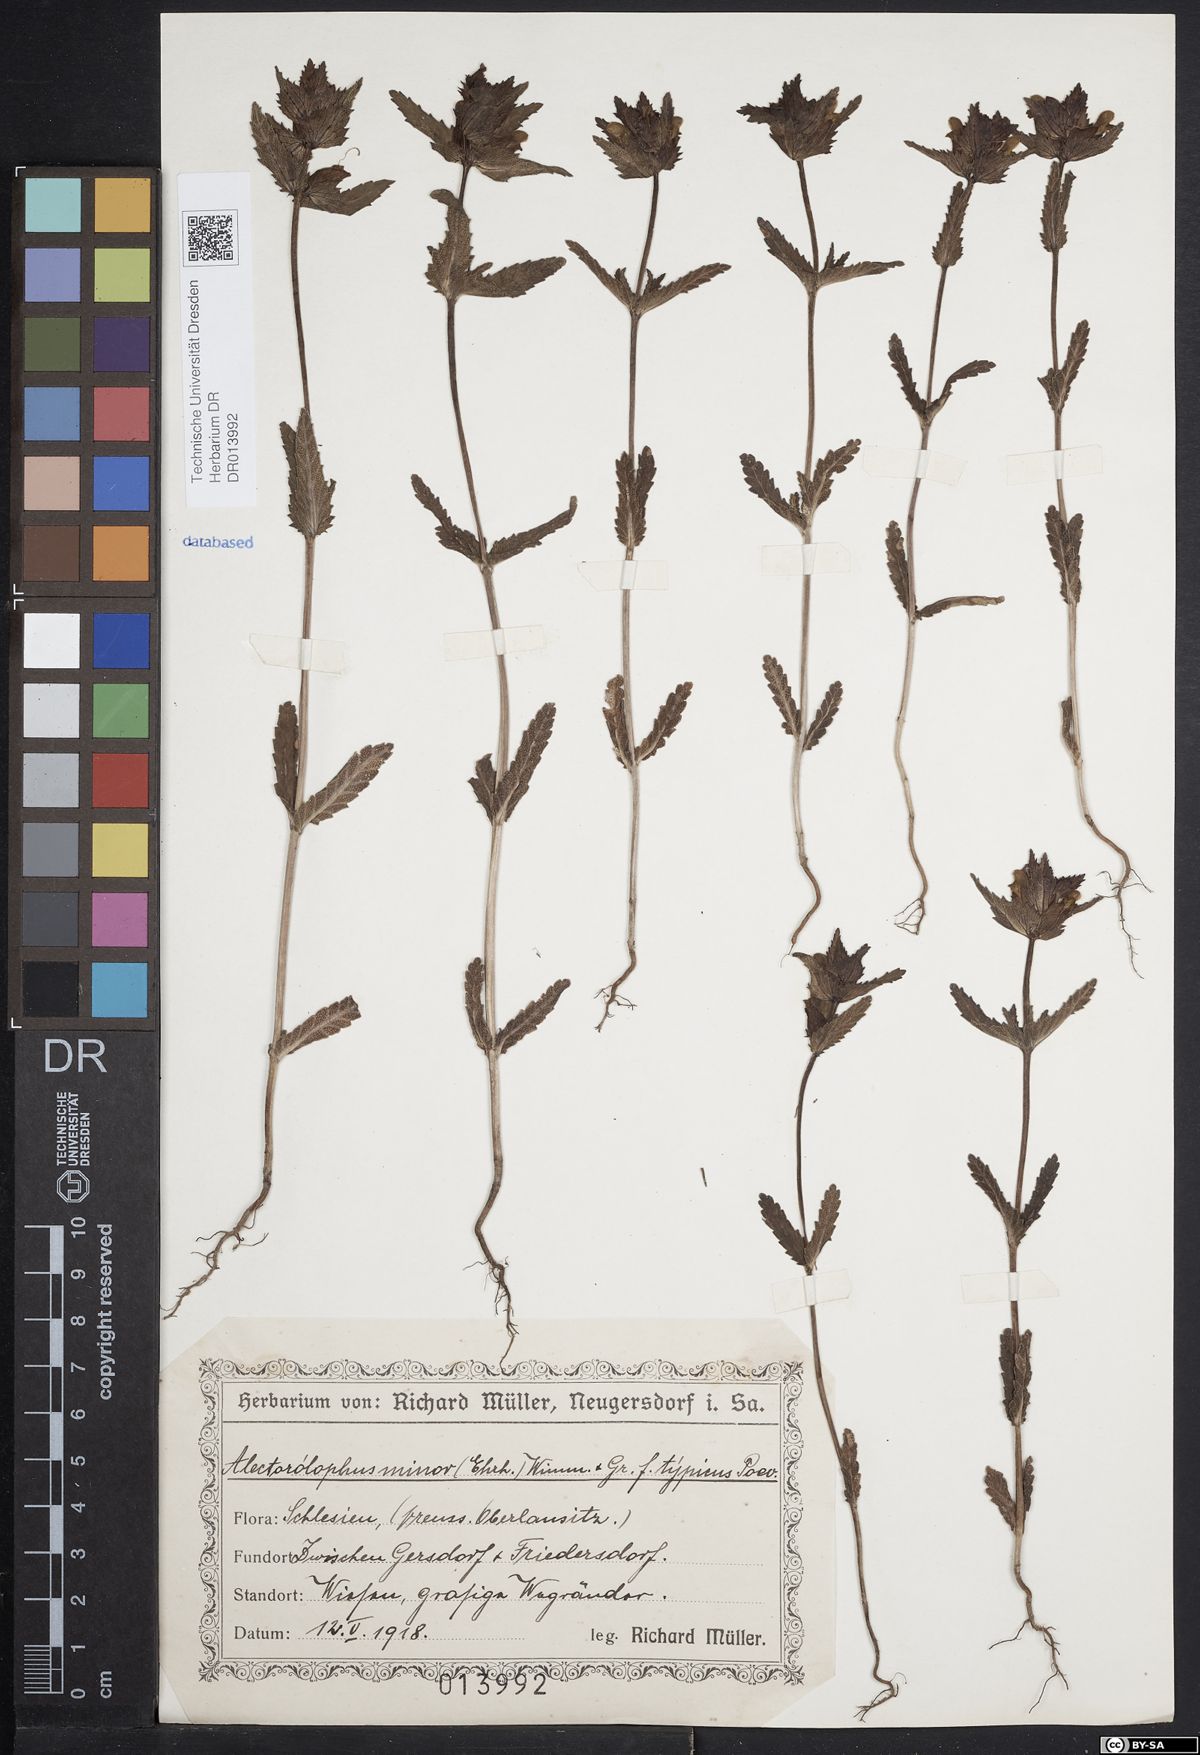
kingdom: Plantae
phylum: Tracheophyta
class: Magnoliopsida
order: Lamiales
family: Orobanchaceae
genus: Rhinanthus
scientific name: Rhinanthus minor
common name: Yellow-rattle
